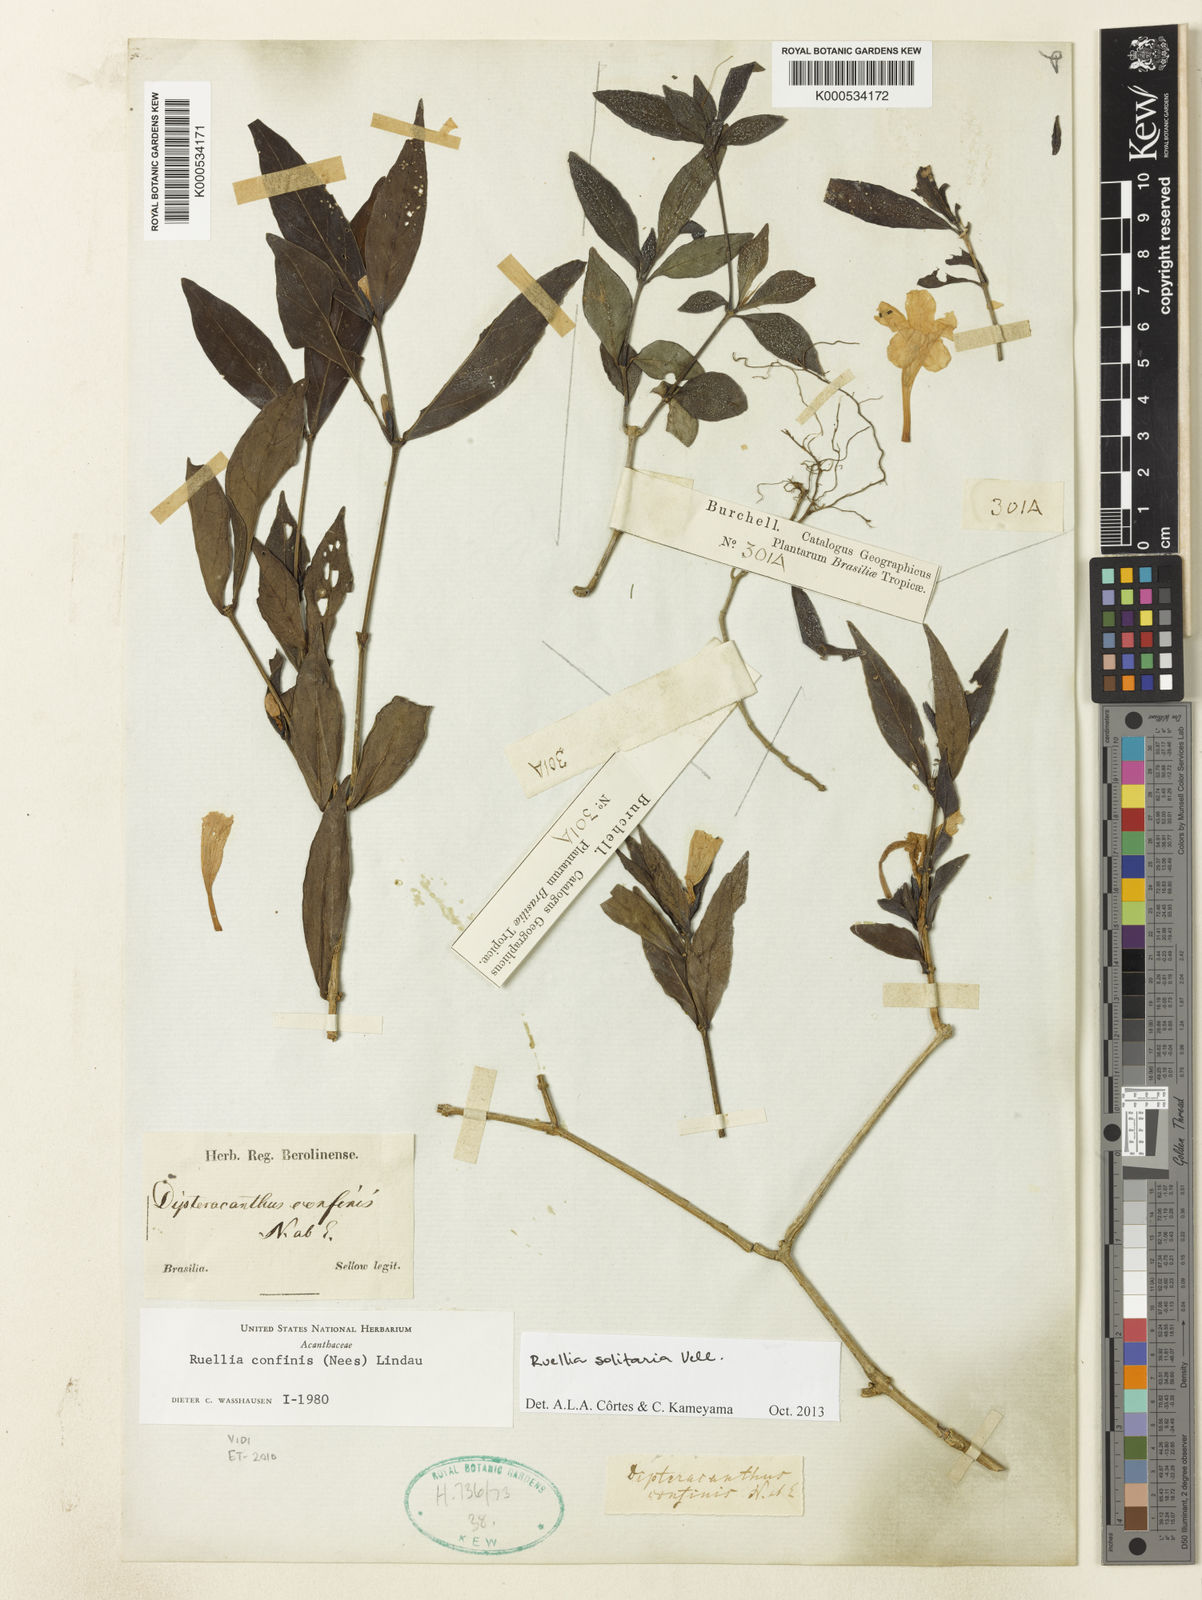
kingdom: Plantae
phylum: Tracheophyta
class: Magnoliopsida
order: Lamiales
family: Acanthaceae
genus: Ruellia
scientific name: Ruellia solitaria
